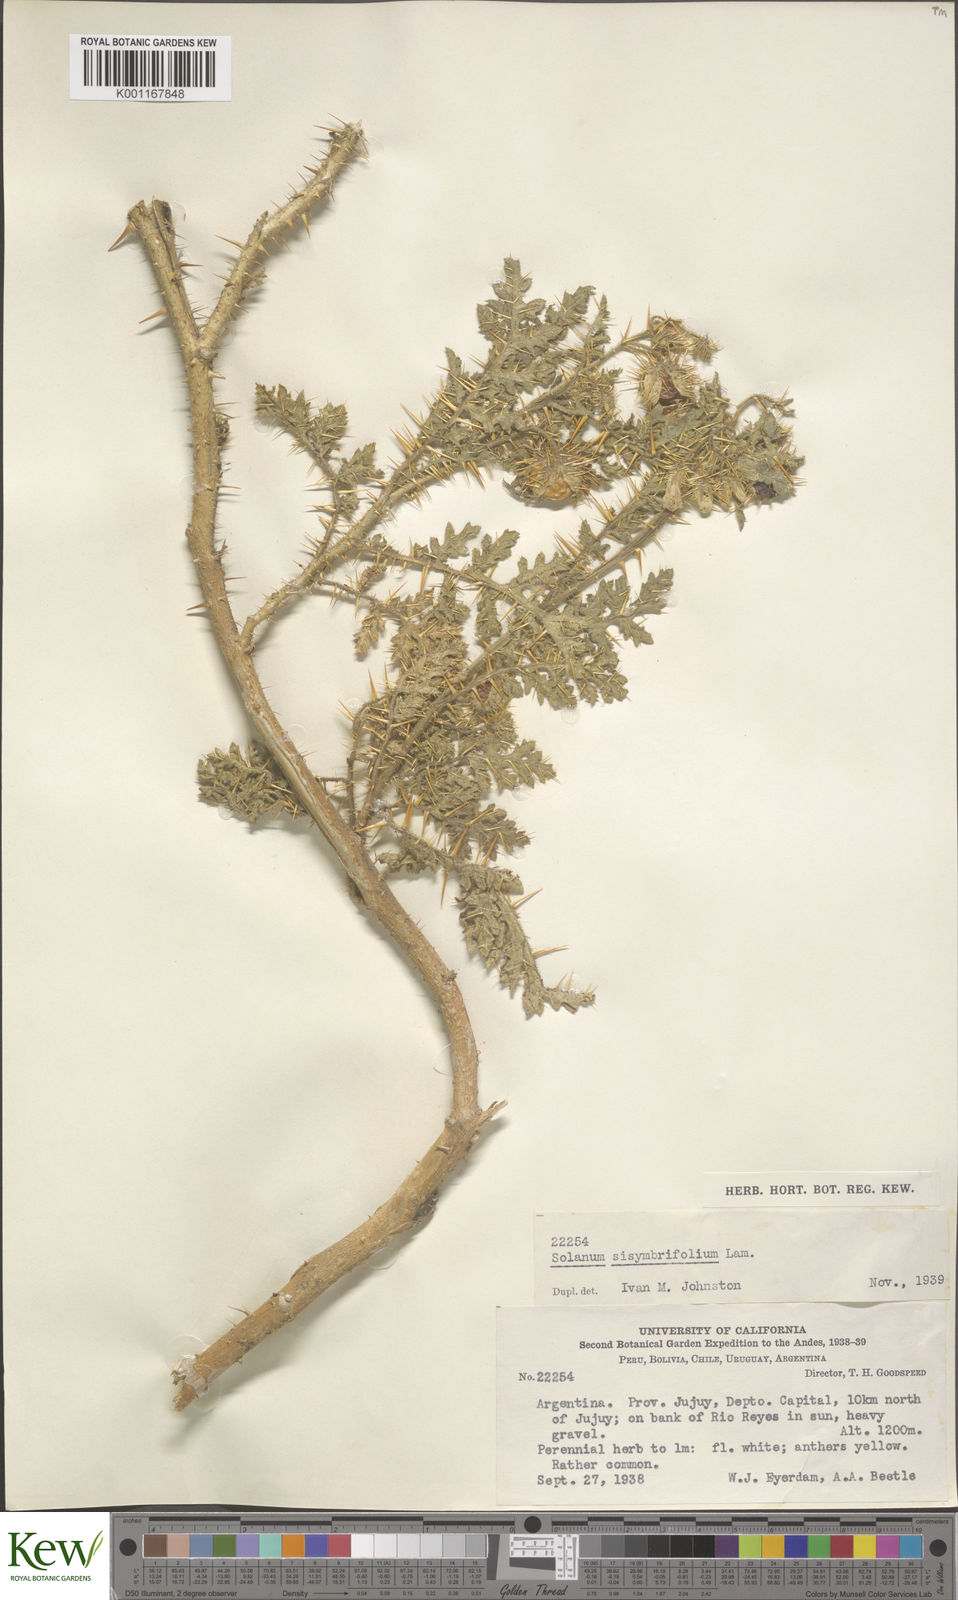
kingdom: Plantae
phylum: Tracheophyta
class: Magnoliopsida
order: Solanales
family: Solanaceae
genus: Solanum
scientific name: Solanum sisymbriifolium
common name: Red buffalo-bur
